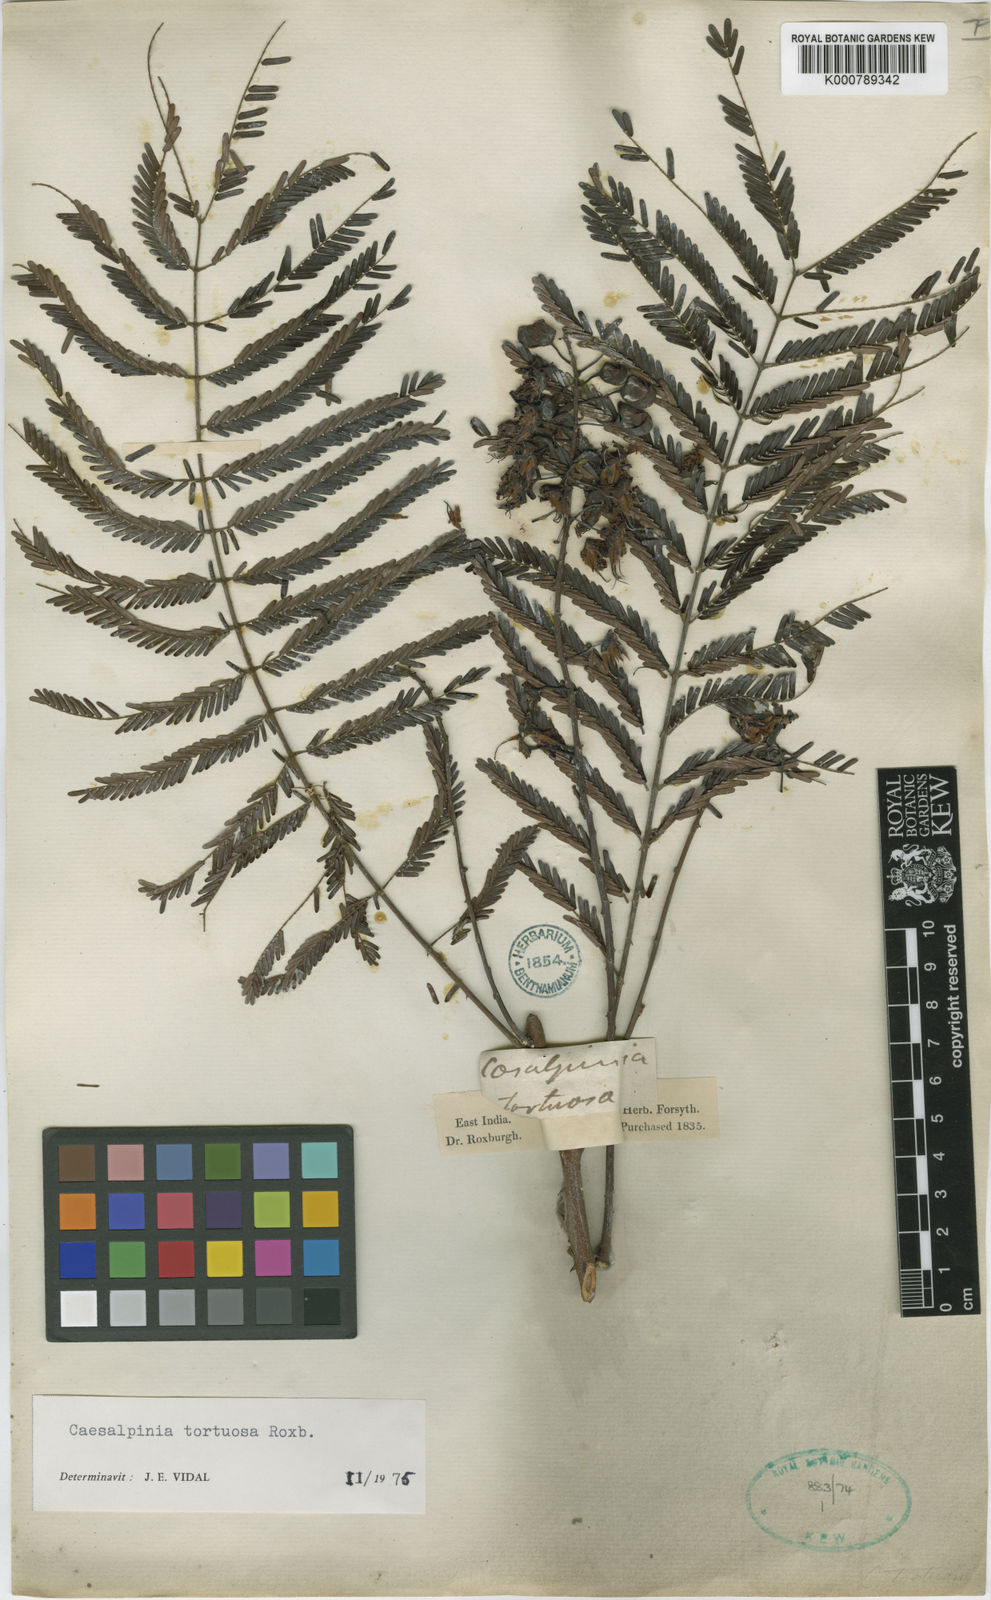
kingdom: Plantae
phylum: Tracheophyta
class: Magnoliopsida
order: Fabales
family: Fabaceae
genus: Moullava
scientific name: Moullava tortuosa
